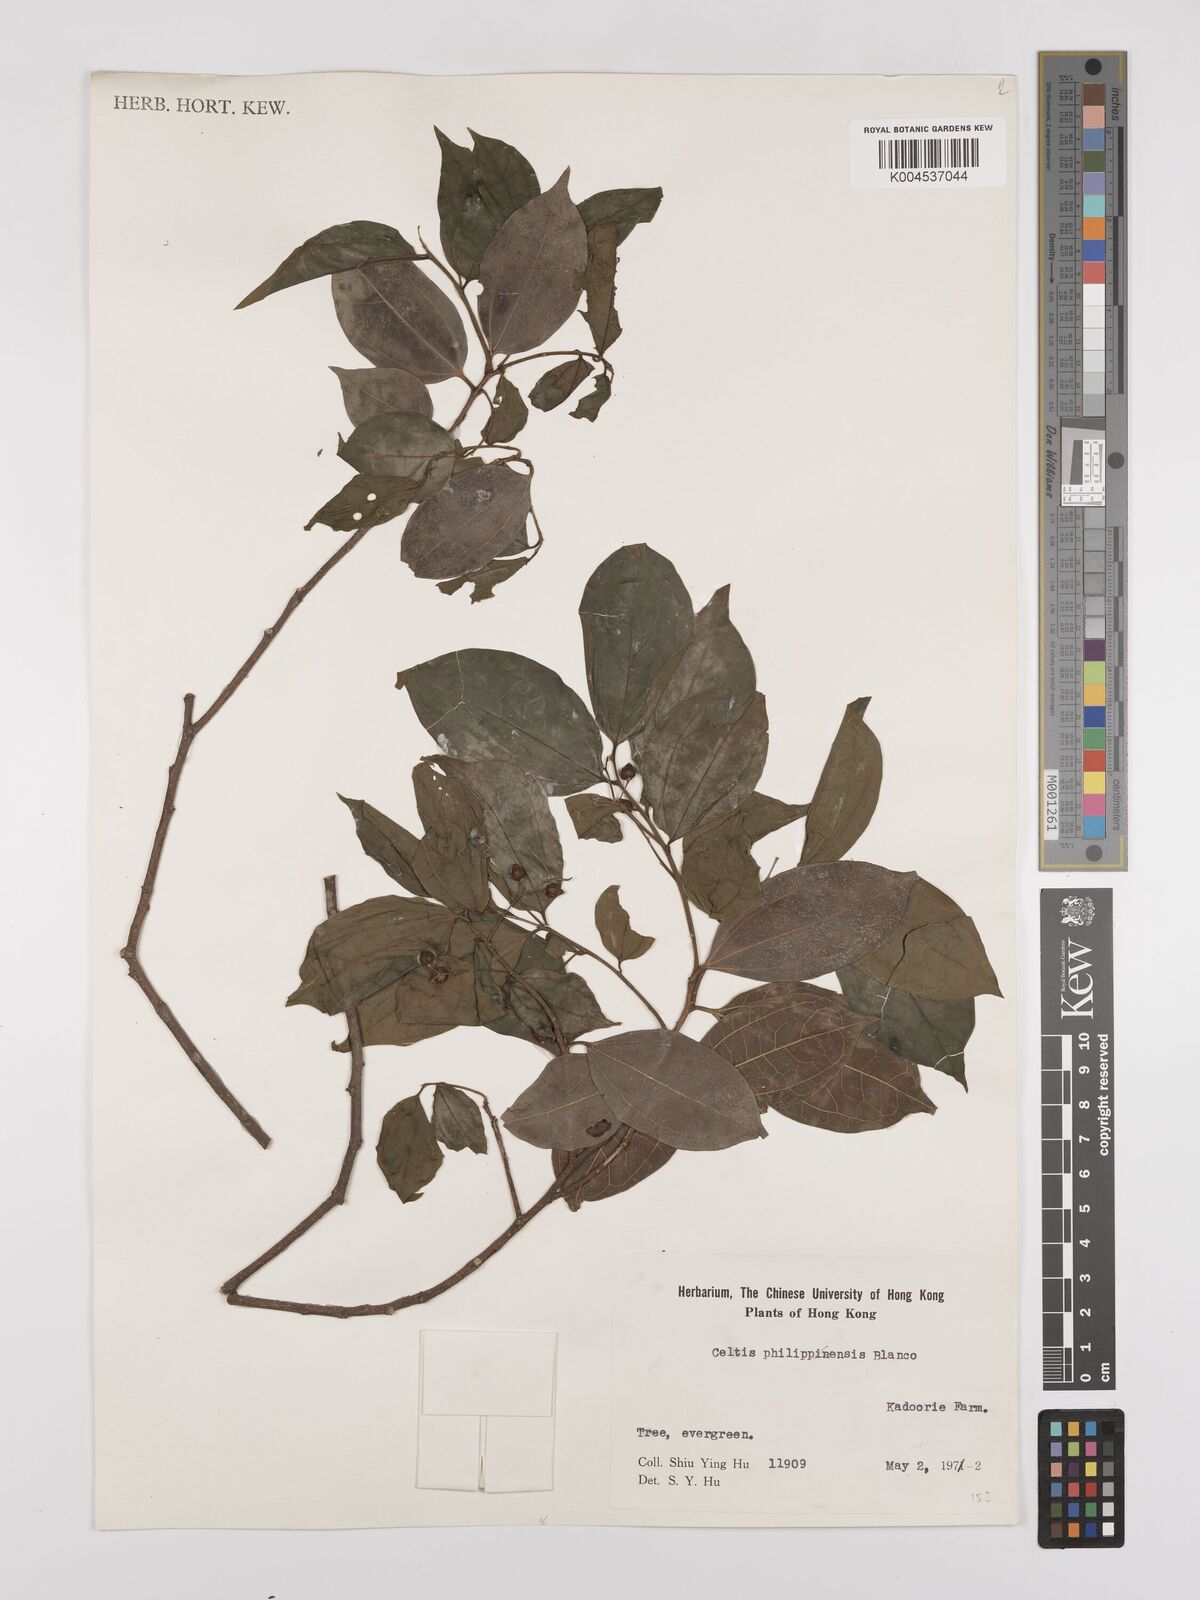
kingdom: Plantae
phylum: Tracheophyta
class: Magnoliopsida
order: Rosales
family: Cannabaceae
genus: Celtis
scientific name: Celtis timorensis
